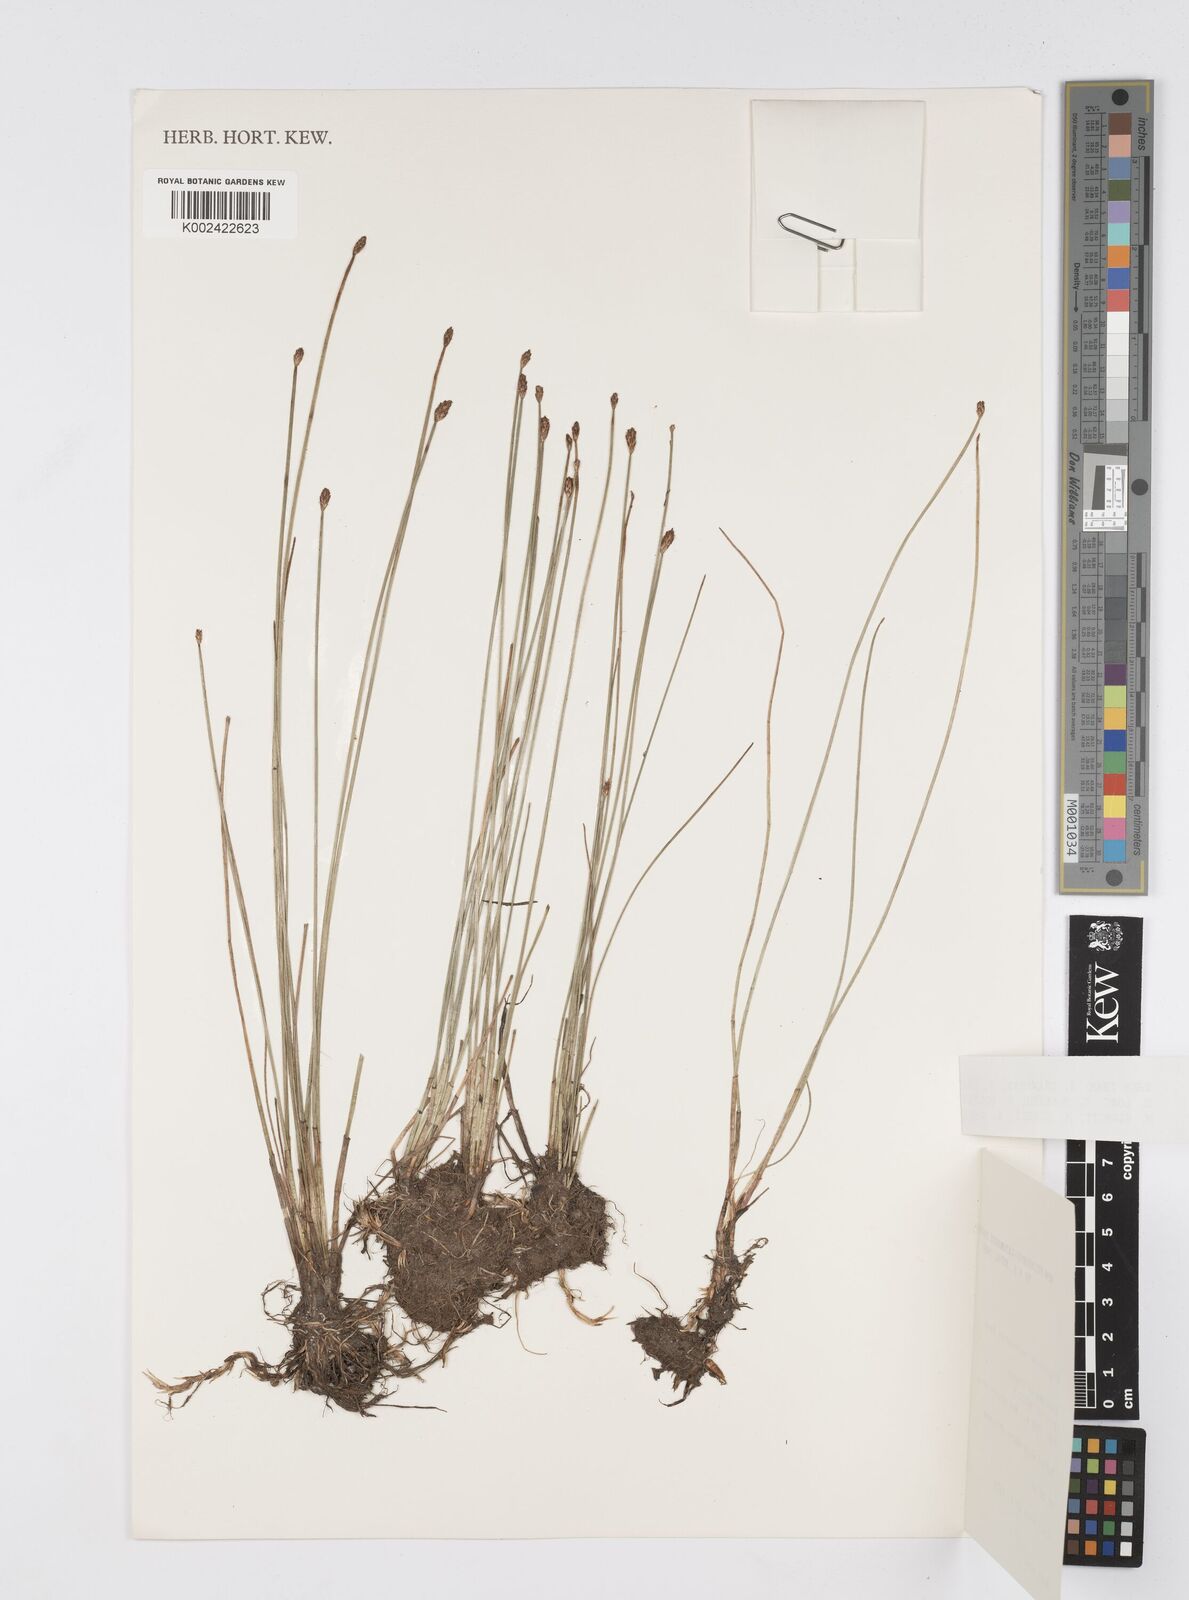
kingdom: Plantae
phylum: Tracheophyta
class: Liliopsida
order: Poales
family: Cyperaceae
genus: Eleocharis
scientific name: Eleocharis tetraquetra
